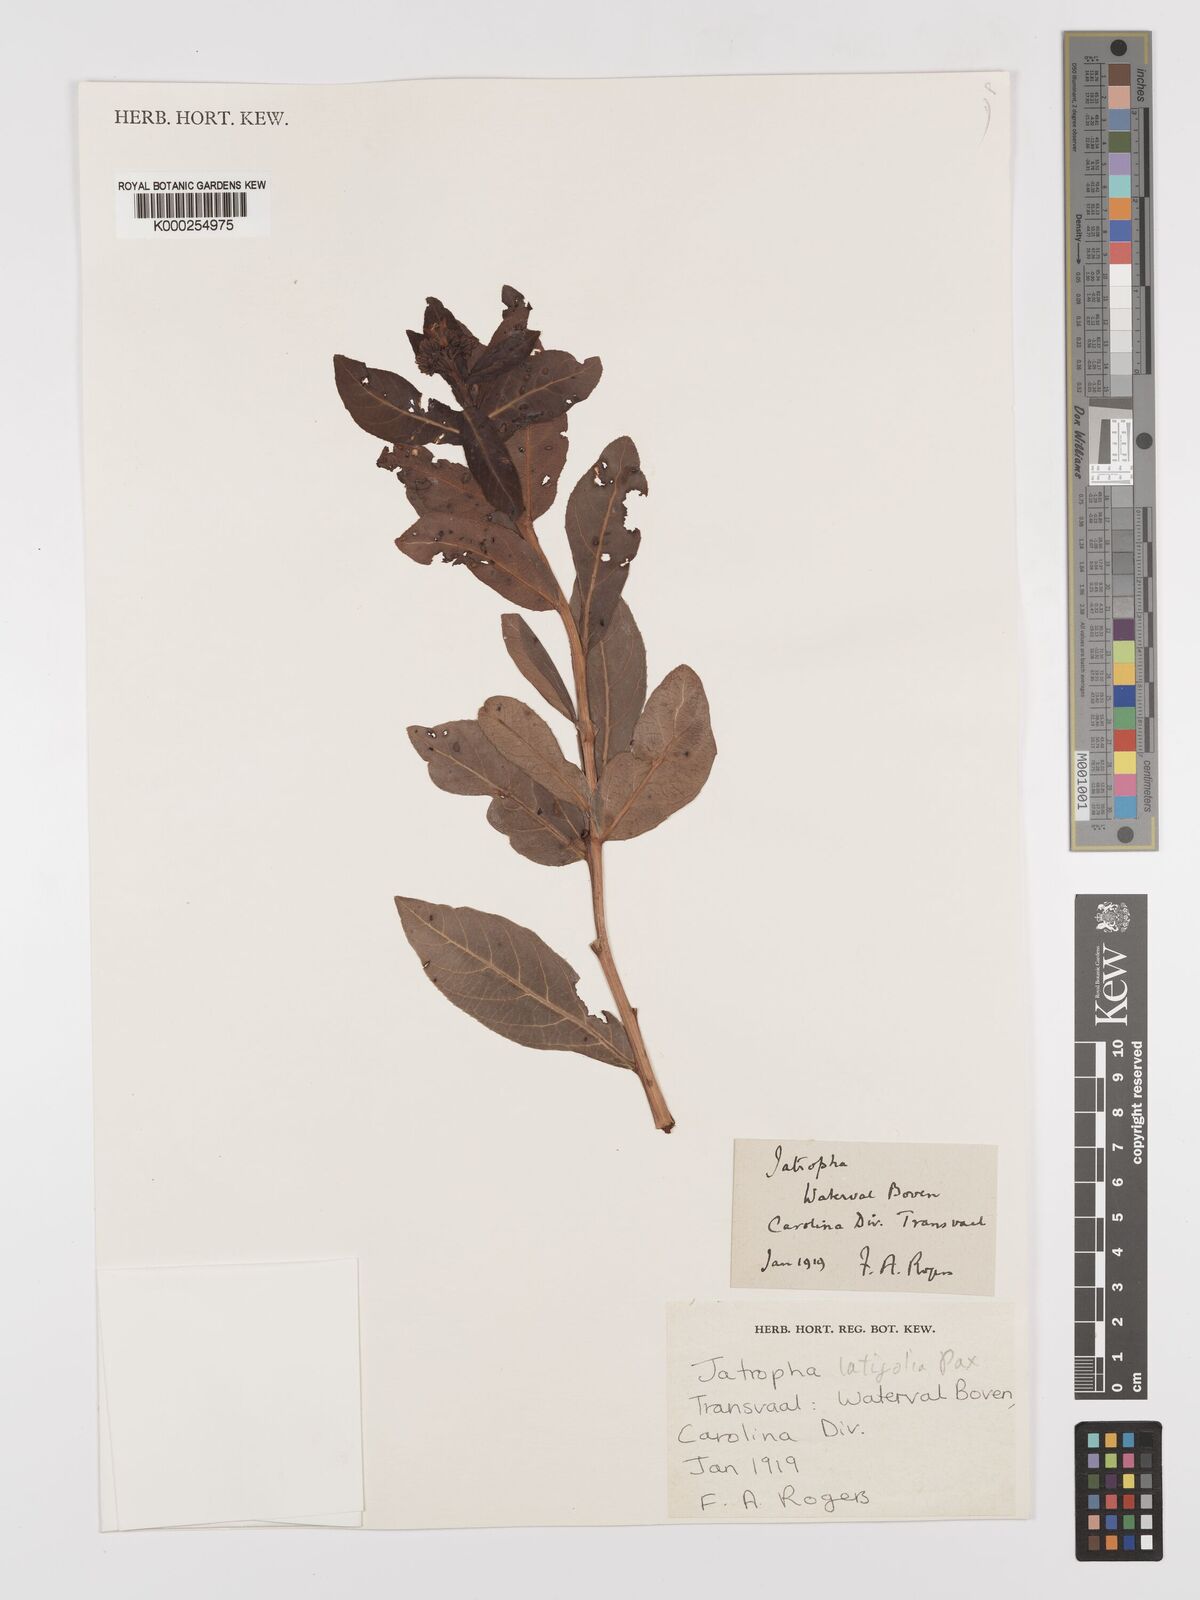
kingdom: Plantae
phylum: Tracheophyta
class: Magnoliopsida
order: Malpighiales
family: Euphorbiaceae
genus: Jatropha
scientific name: Jatropha latifolia
